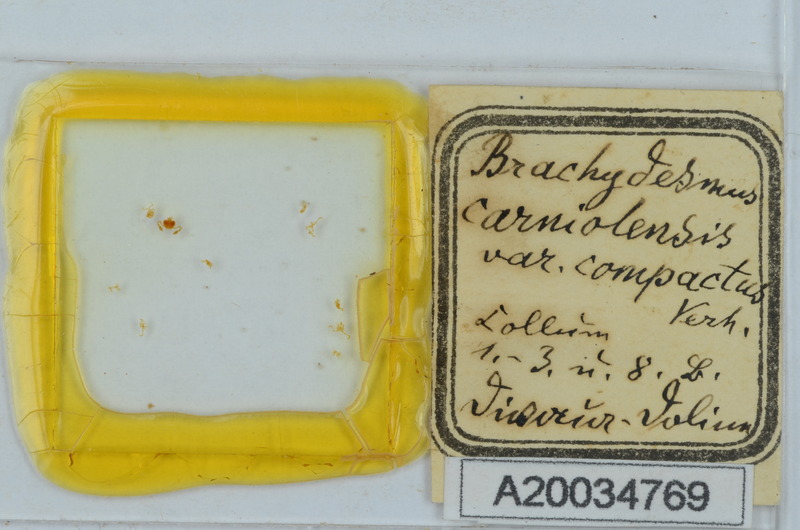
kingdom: Animalia
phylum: Arthropoda
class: Diplopoda
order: Polydesmida
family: Polydesmidae
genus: Brachydesmus
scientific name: Brachydesmus carniolensis
